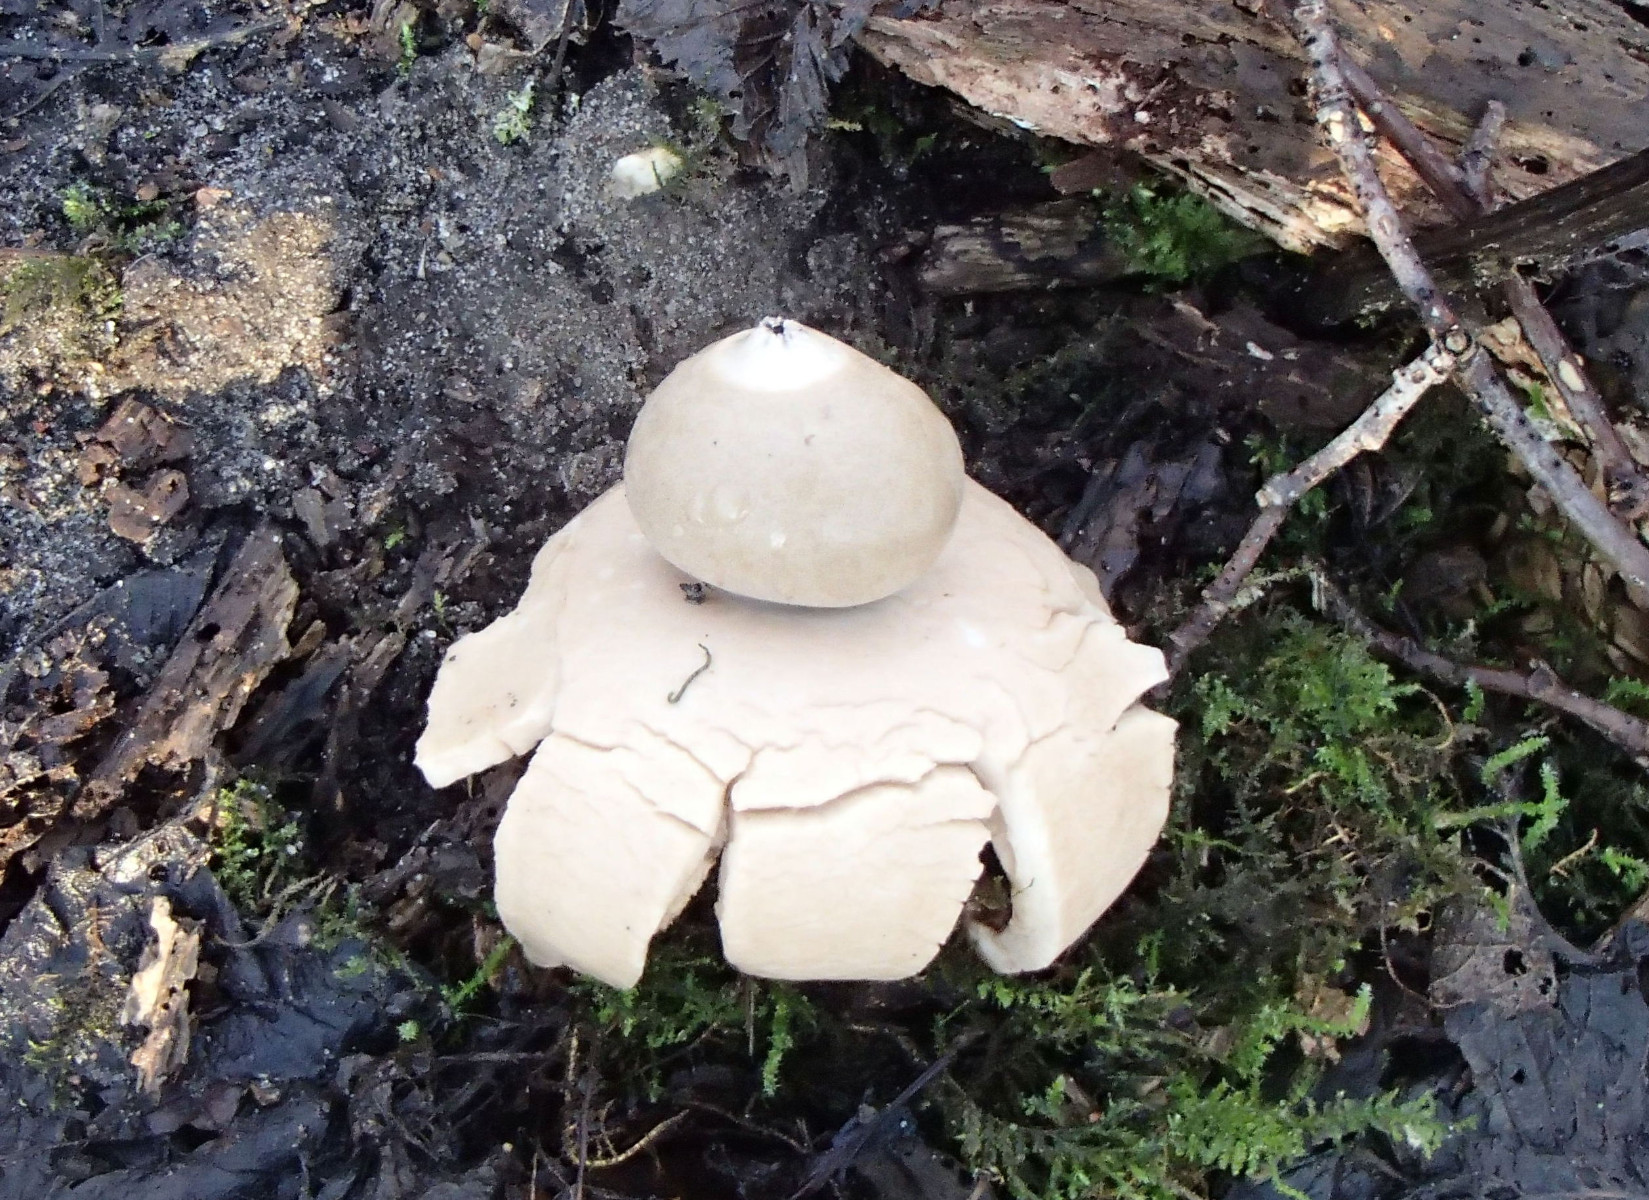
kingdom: Fungi
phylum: Basidiomycota
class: Agaricomycetes
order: Geastrales
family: Geastraceae
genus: Geastrum
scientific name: Geastrum michelianum
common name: kødet stjernebold
